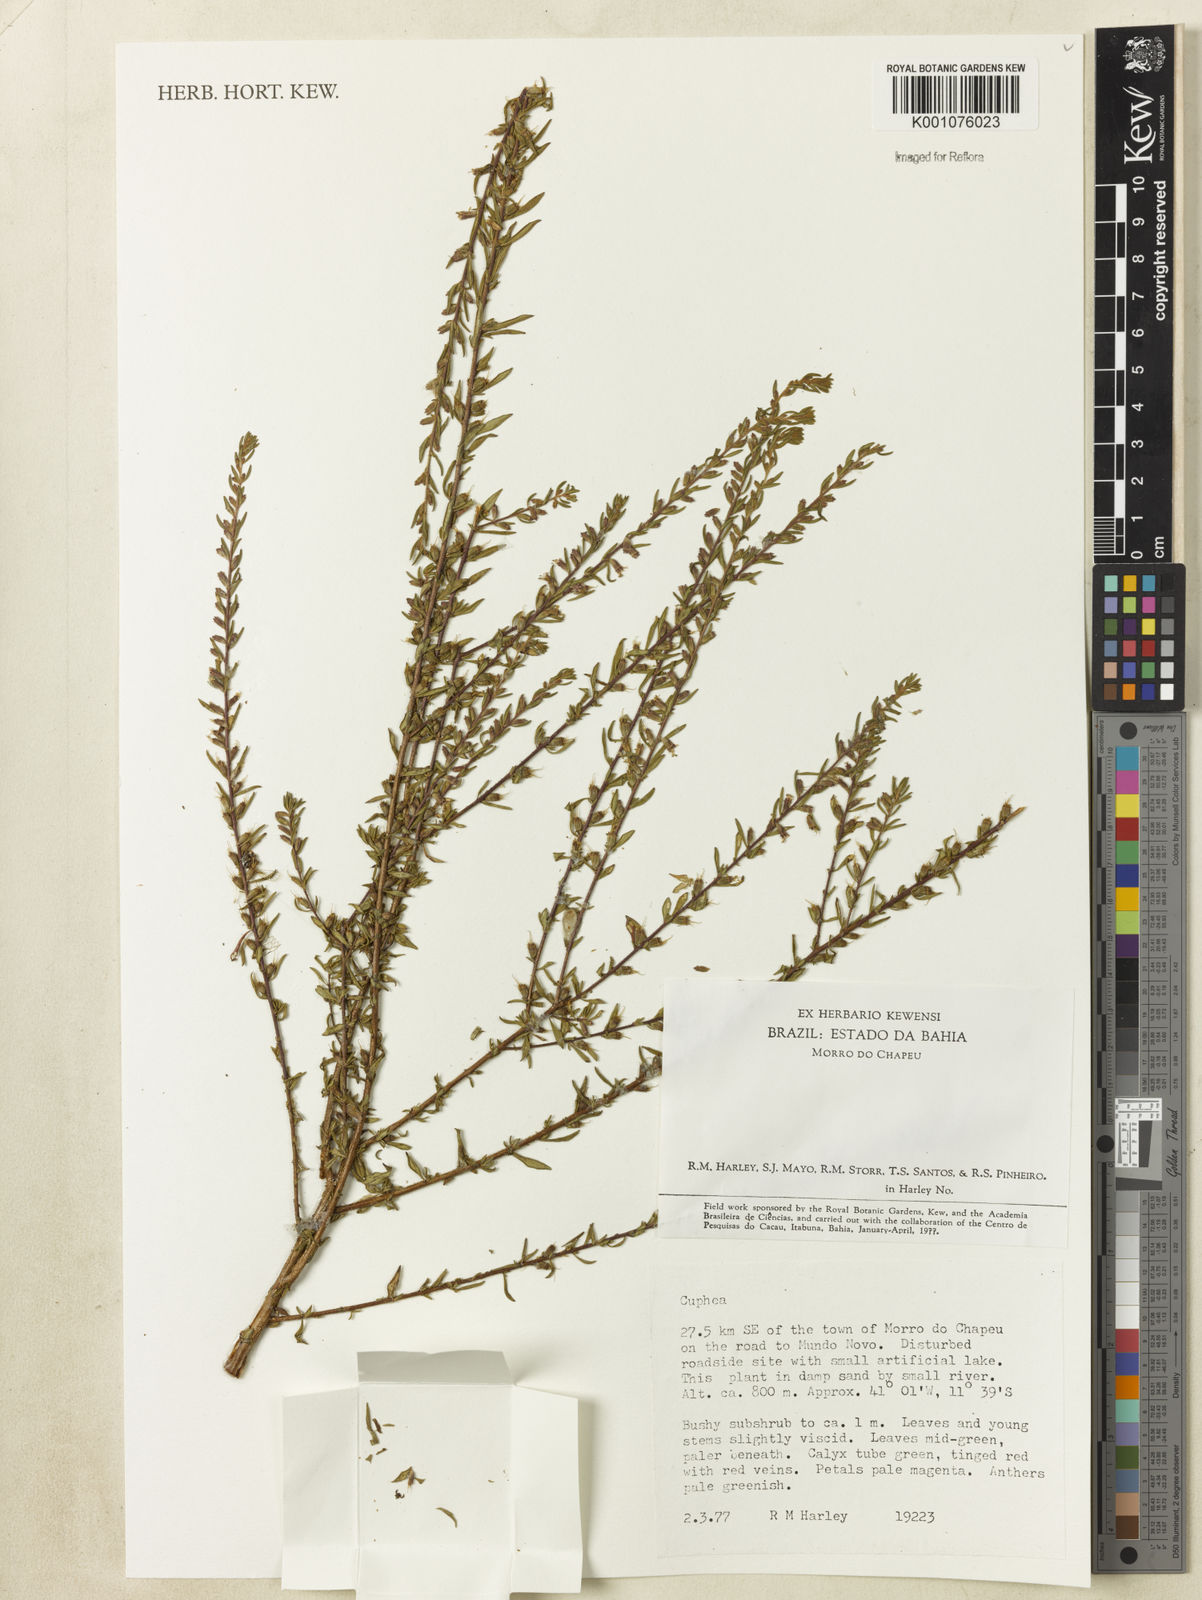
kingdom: Plantae
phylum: Tracheophyta
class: Magnoliopsida
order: Myrtales
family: Lythraceae
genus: Cuphea
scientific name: Cuphea
